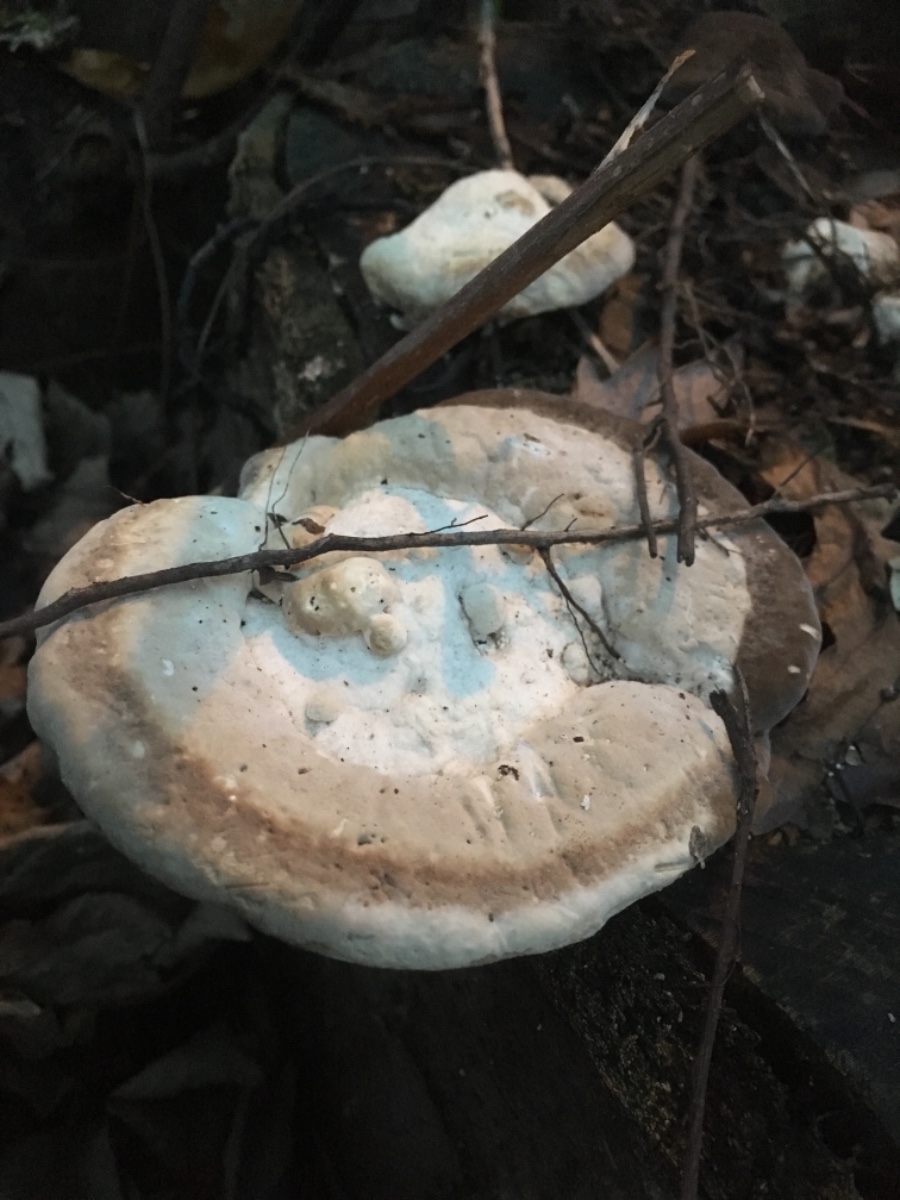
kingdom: Fungi
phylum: Basidiomycota
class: Agaricomycetes
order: Polyporales
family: Polyporaceae
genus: Trametes
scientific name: Trametes gibbosa
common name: puklet læderporesvamp
